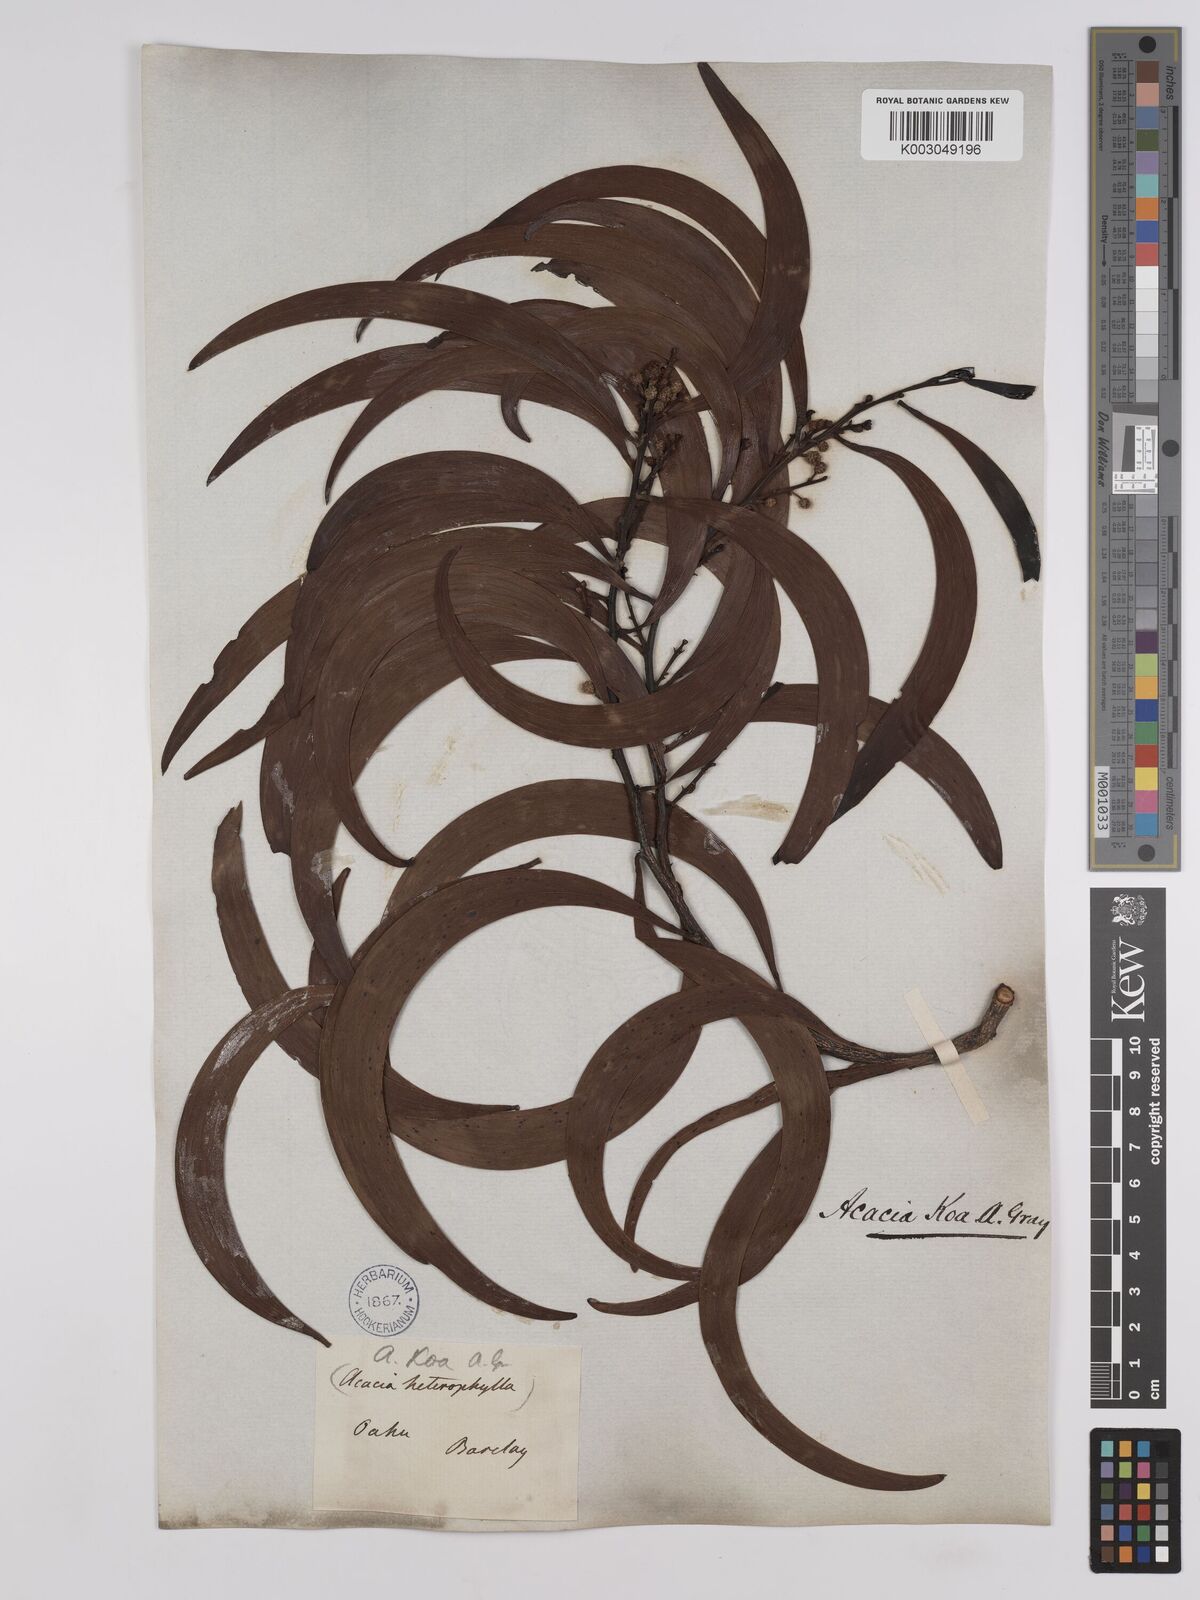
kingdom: Plantae
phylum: Tracheophyta
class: Magnoliopsida
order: Fabales
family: Fabaceae
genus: Acacia
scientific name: Acacia koa
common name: Gray koa
